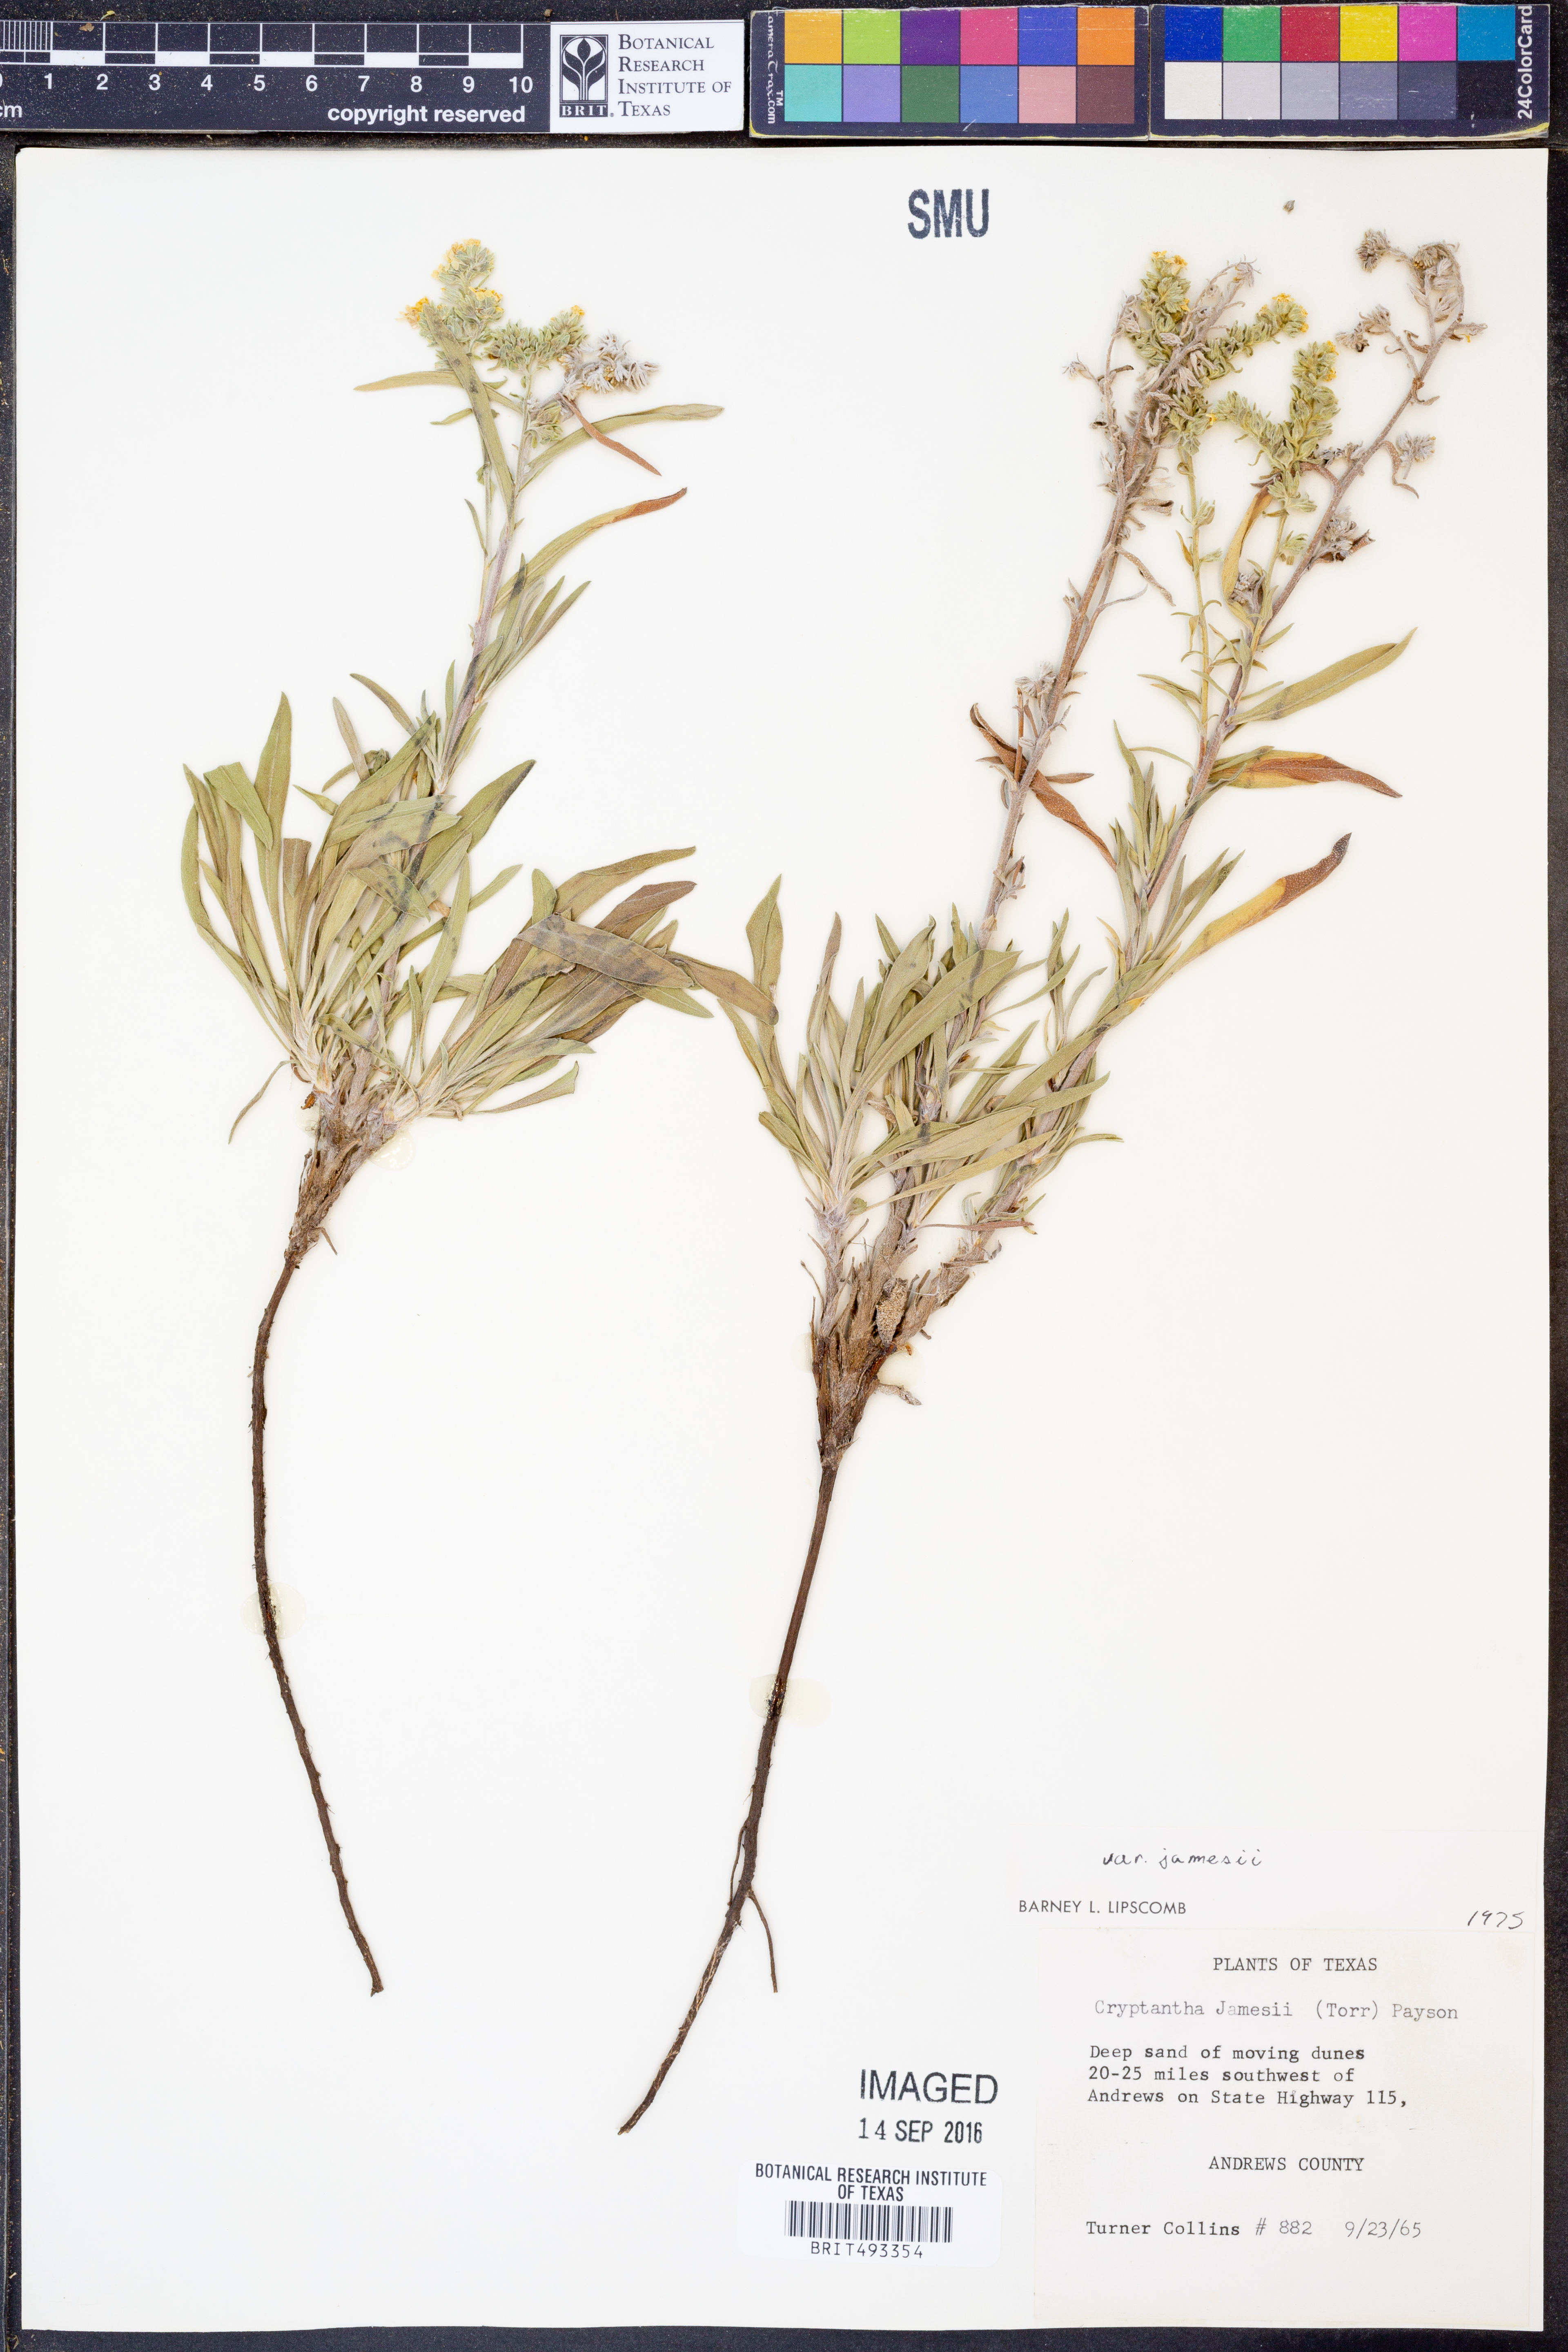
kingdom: Plantae
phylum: Tracheophyta
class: Magnoliopsida
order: Boraginales
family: Boraginaceae
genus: Oreocarya
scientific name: Oreocarya suffruticosa
